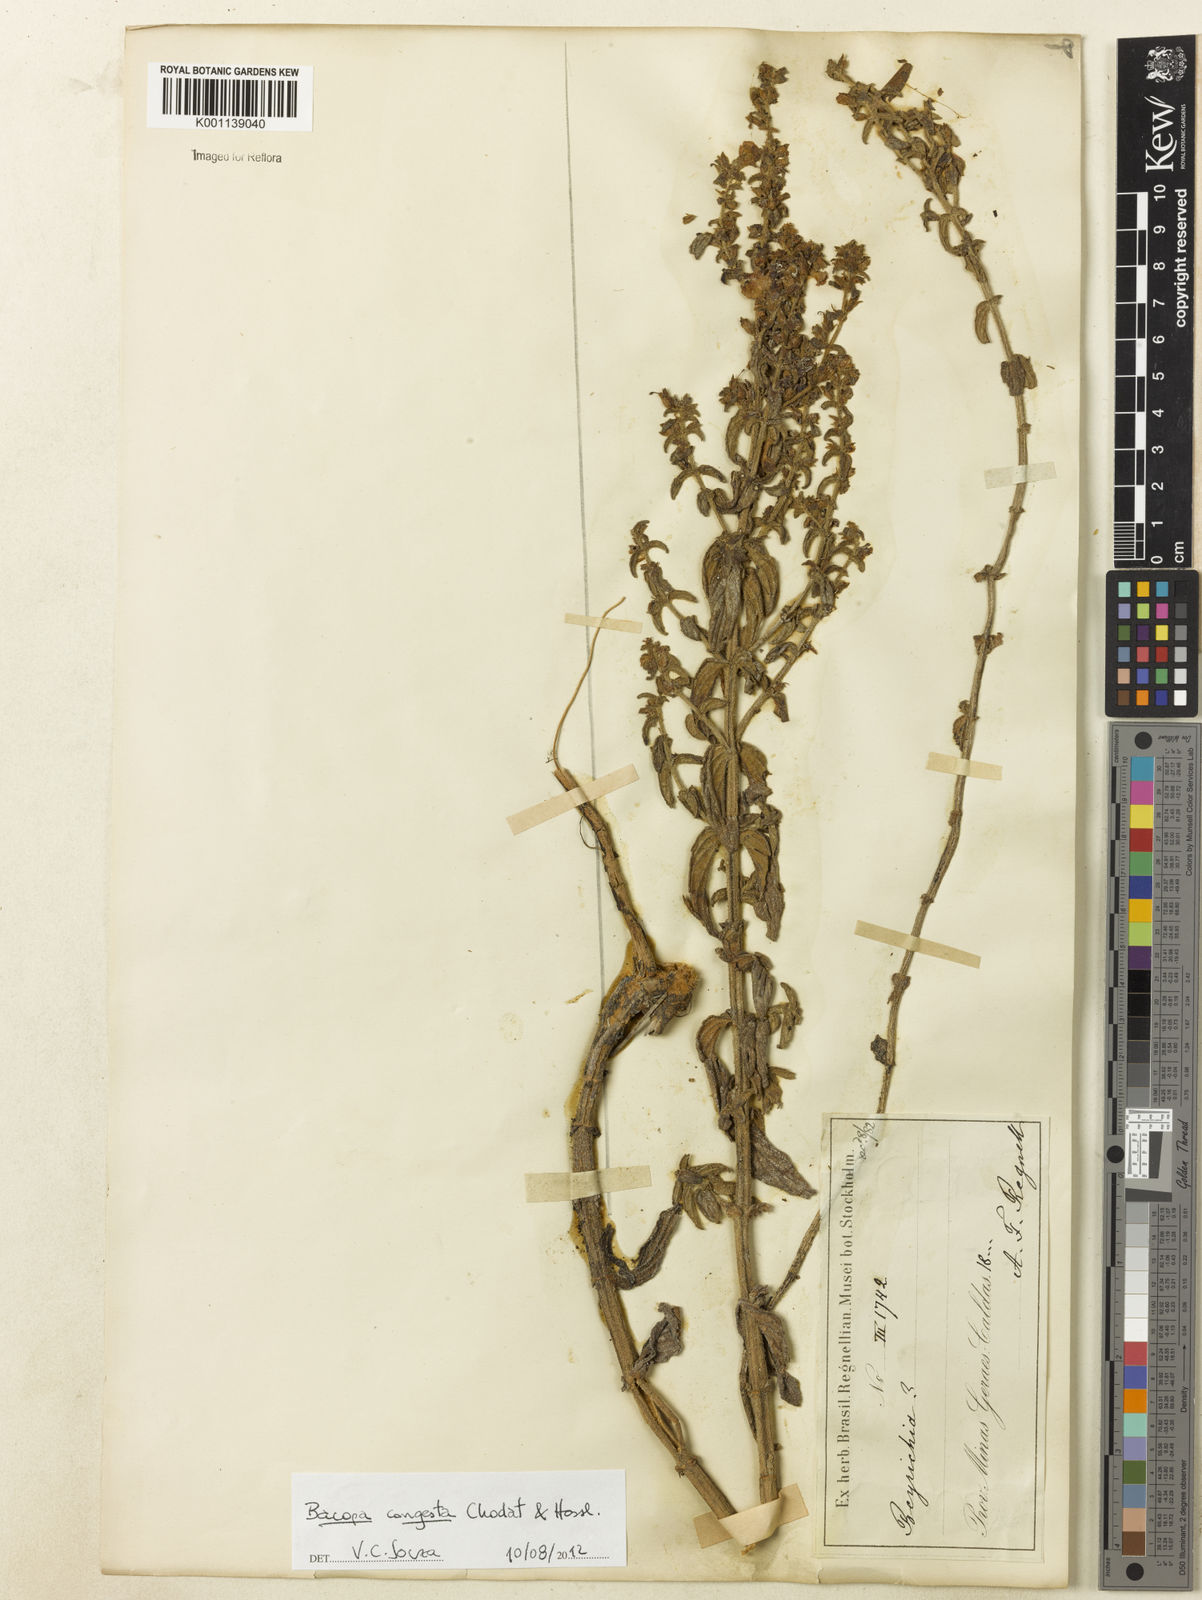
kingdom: Plantae
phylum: Tracheophyta
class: Magnoliopsida
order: Lamiales
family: Plantaginaceae
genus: Bacopa
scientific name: Bacopa congesta
